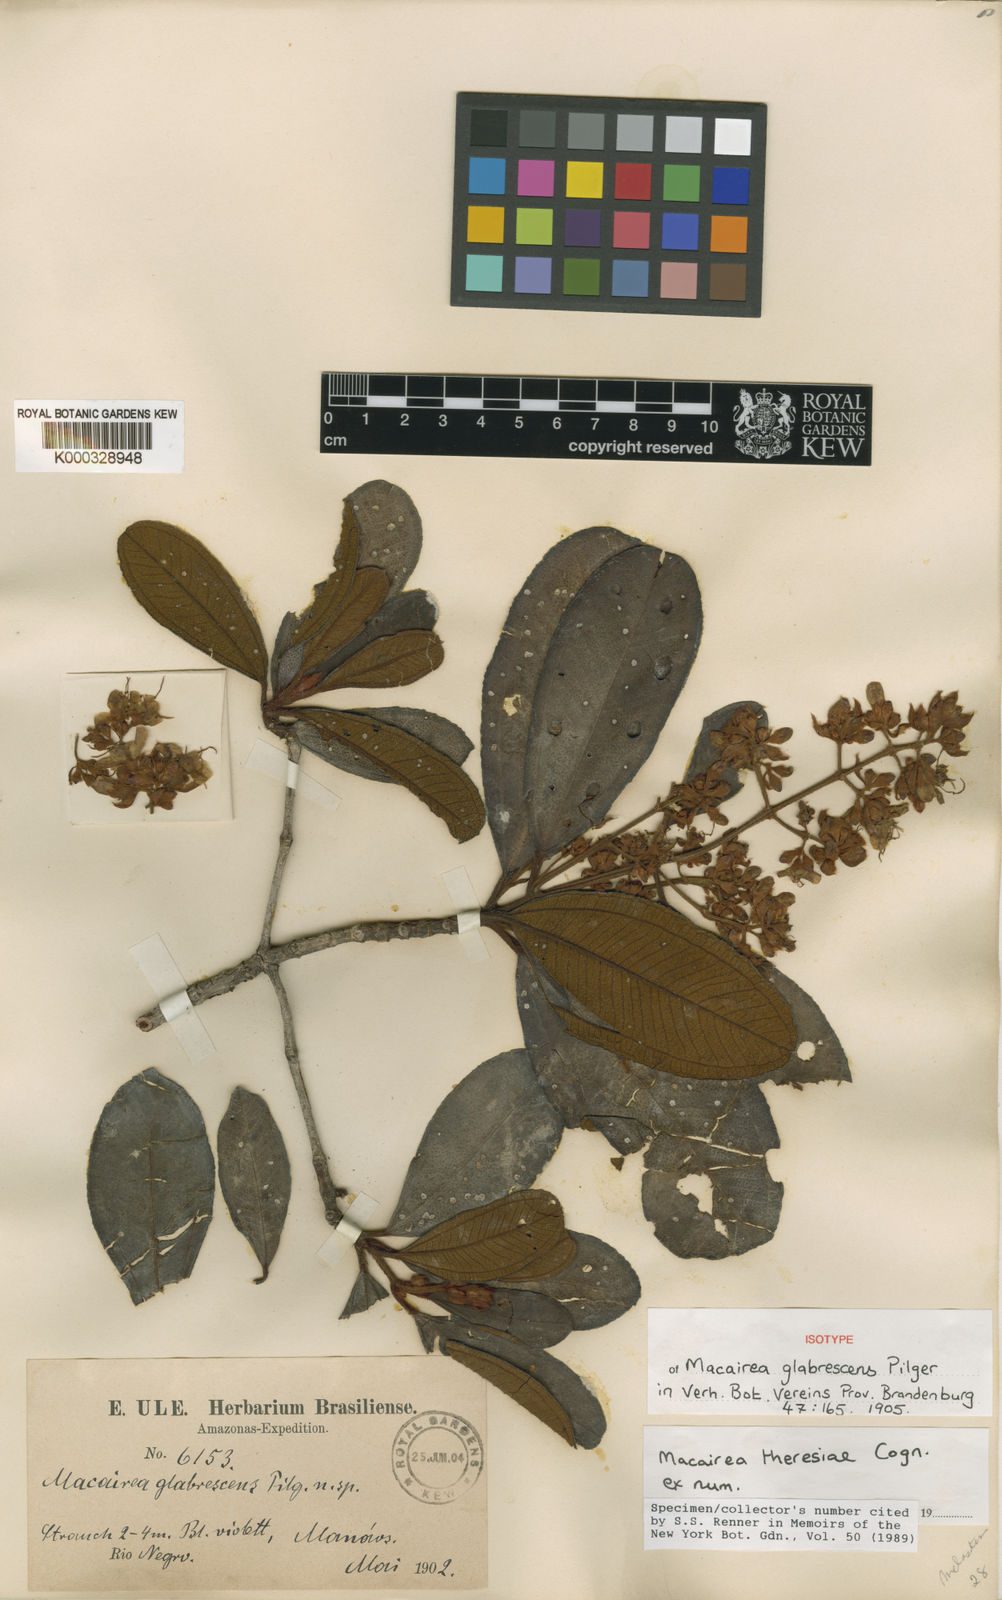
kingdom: Plantae
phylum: Tracheophyta
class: Magnoliopsida
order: Myrtales
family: Melastomataceae
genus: Macairea
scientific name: Macairea theresiae
